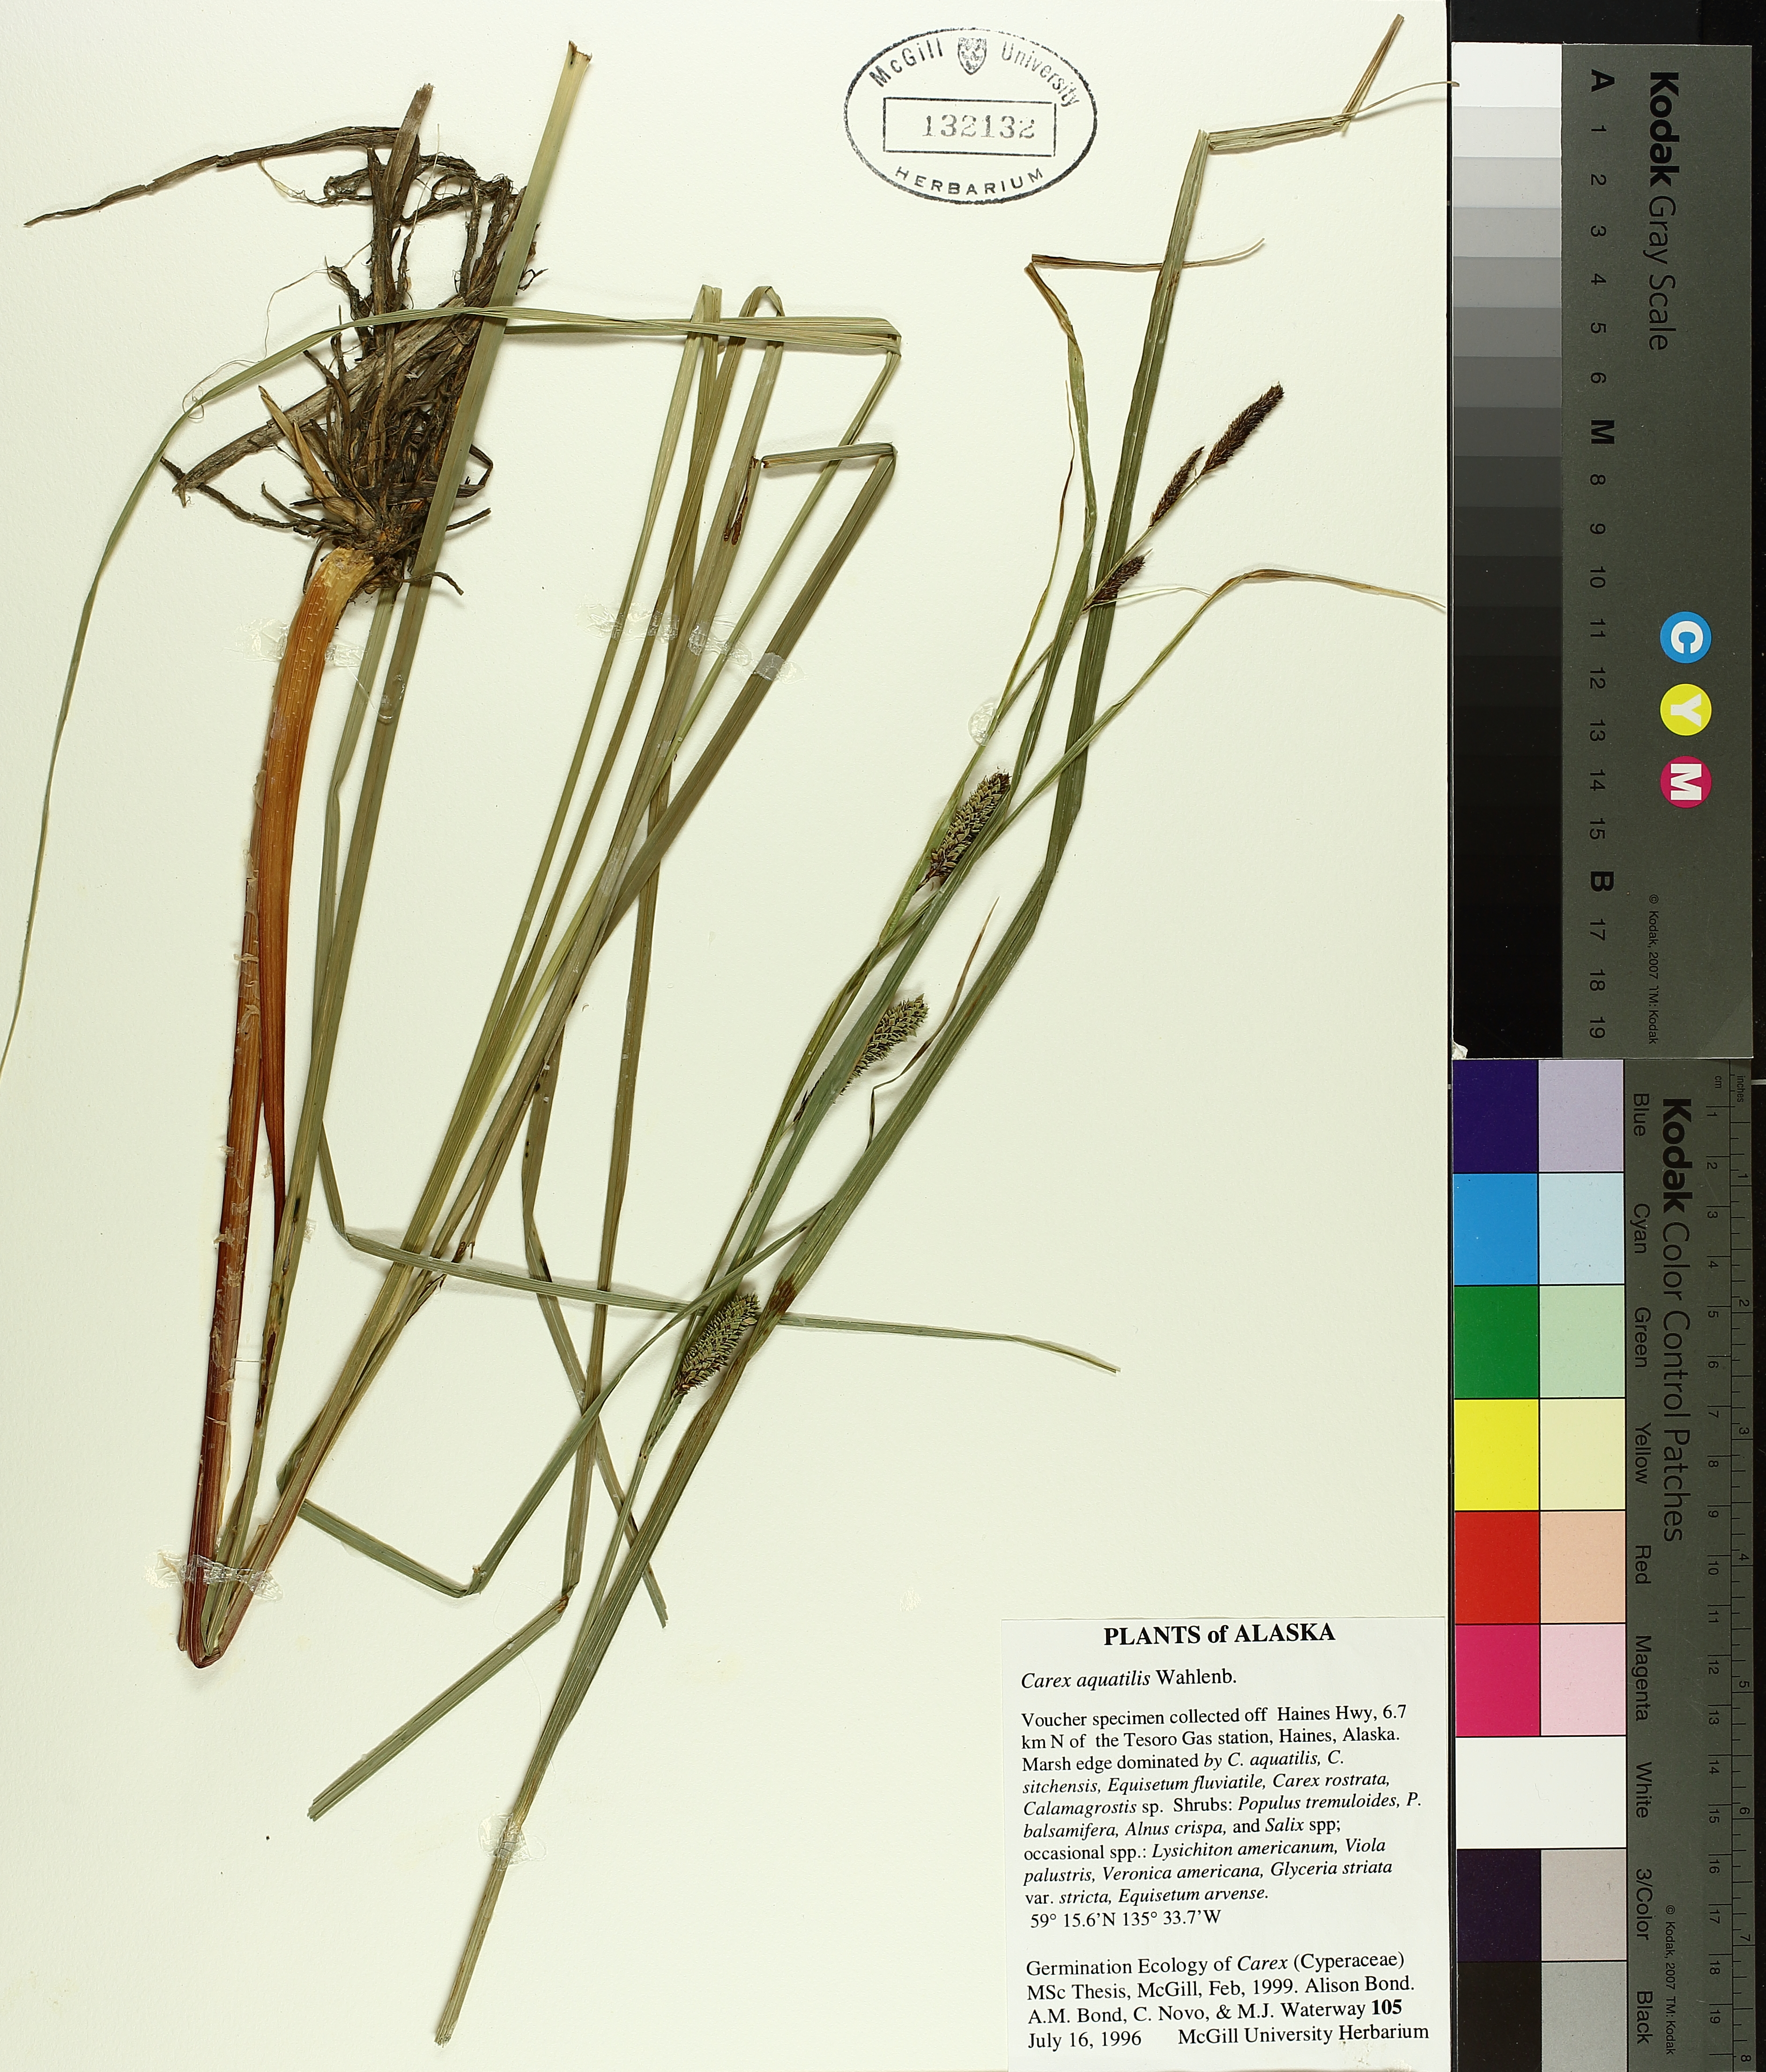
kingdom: Plantae
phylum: Tracheophyta
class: Liliopsida
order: Poales
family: Cyperaceae
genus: Carex
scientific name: Carex aquatilis
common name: Water sedge
